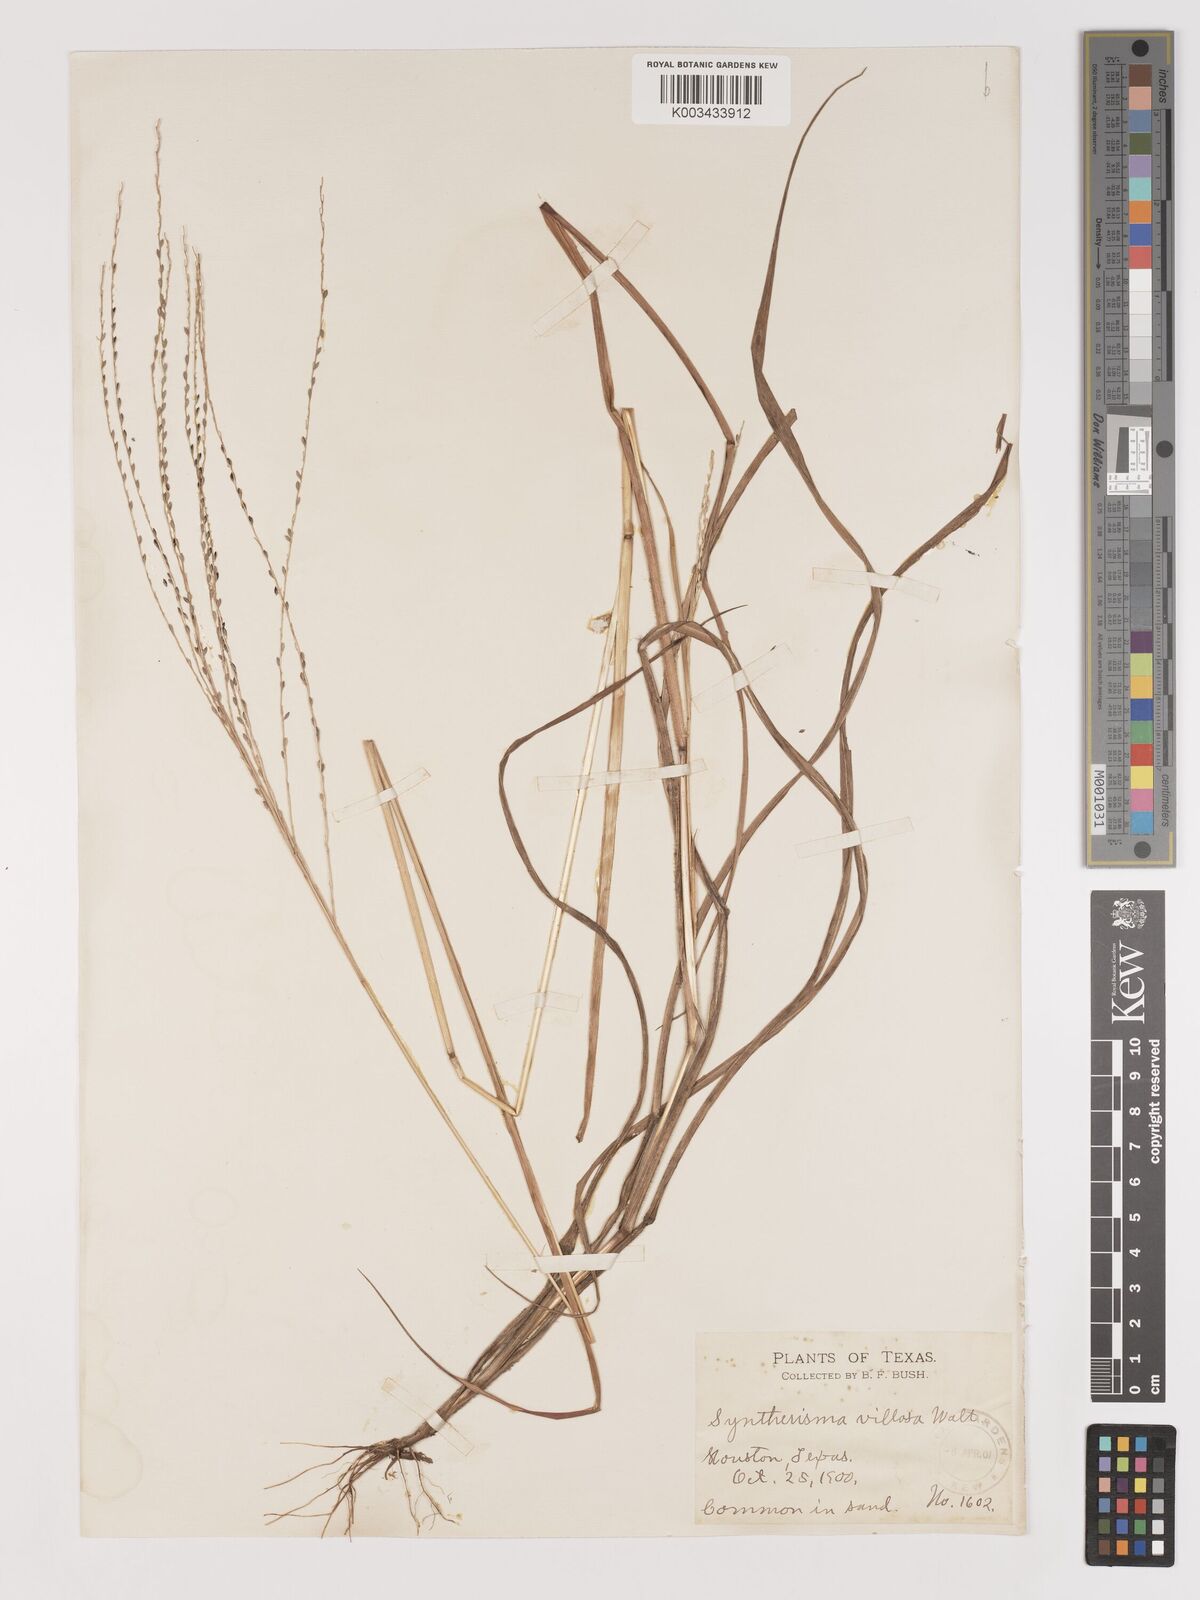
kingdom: Plantae
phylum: Tracheophyta
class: Liliopsida
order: Poales
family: Poaceae
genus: Digitaria
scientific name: Digitaria villosa
